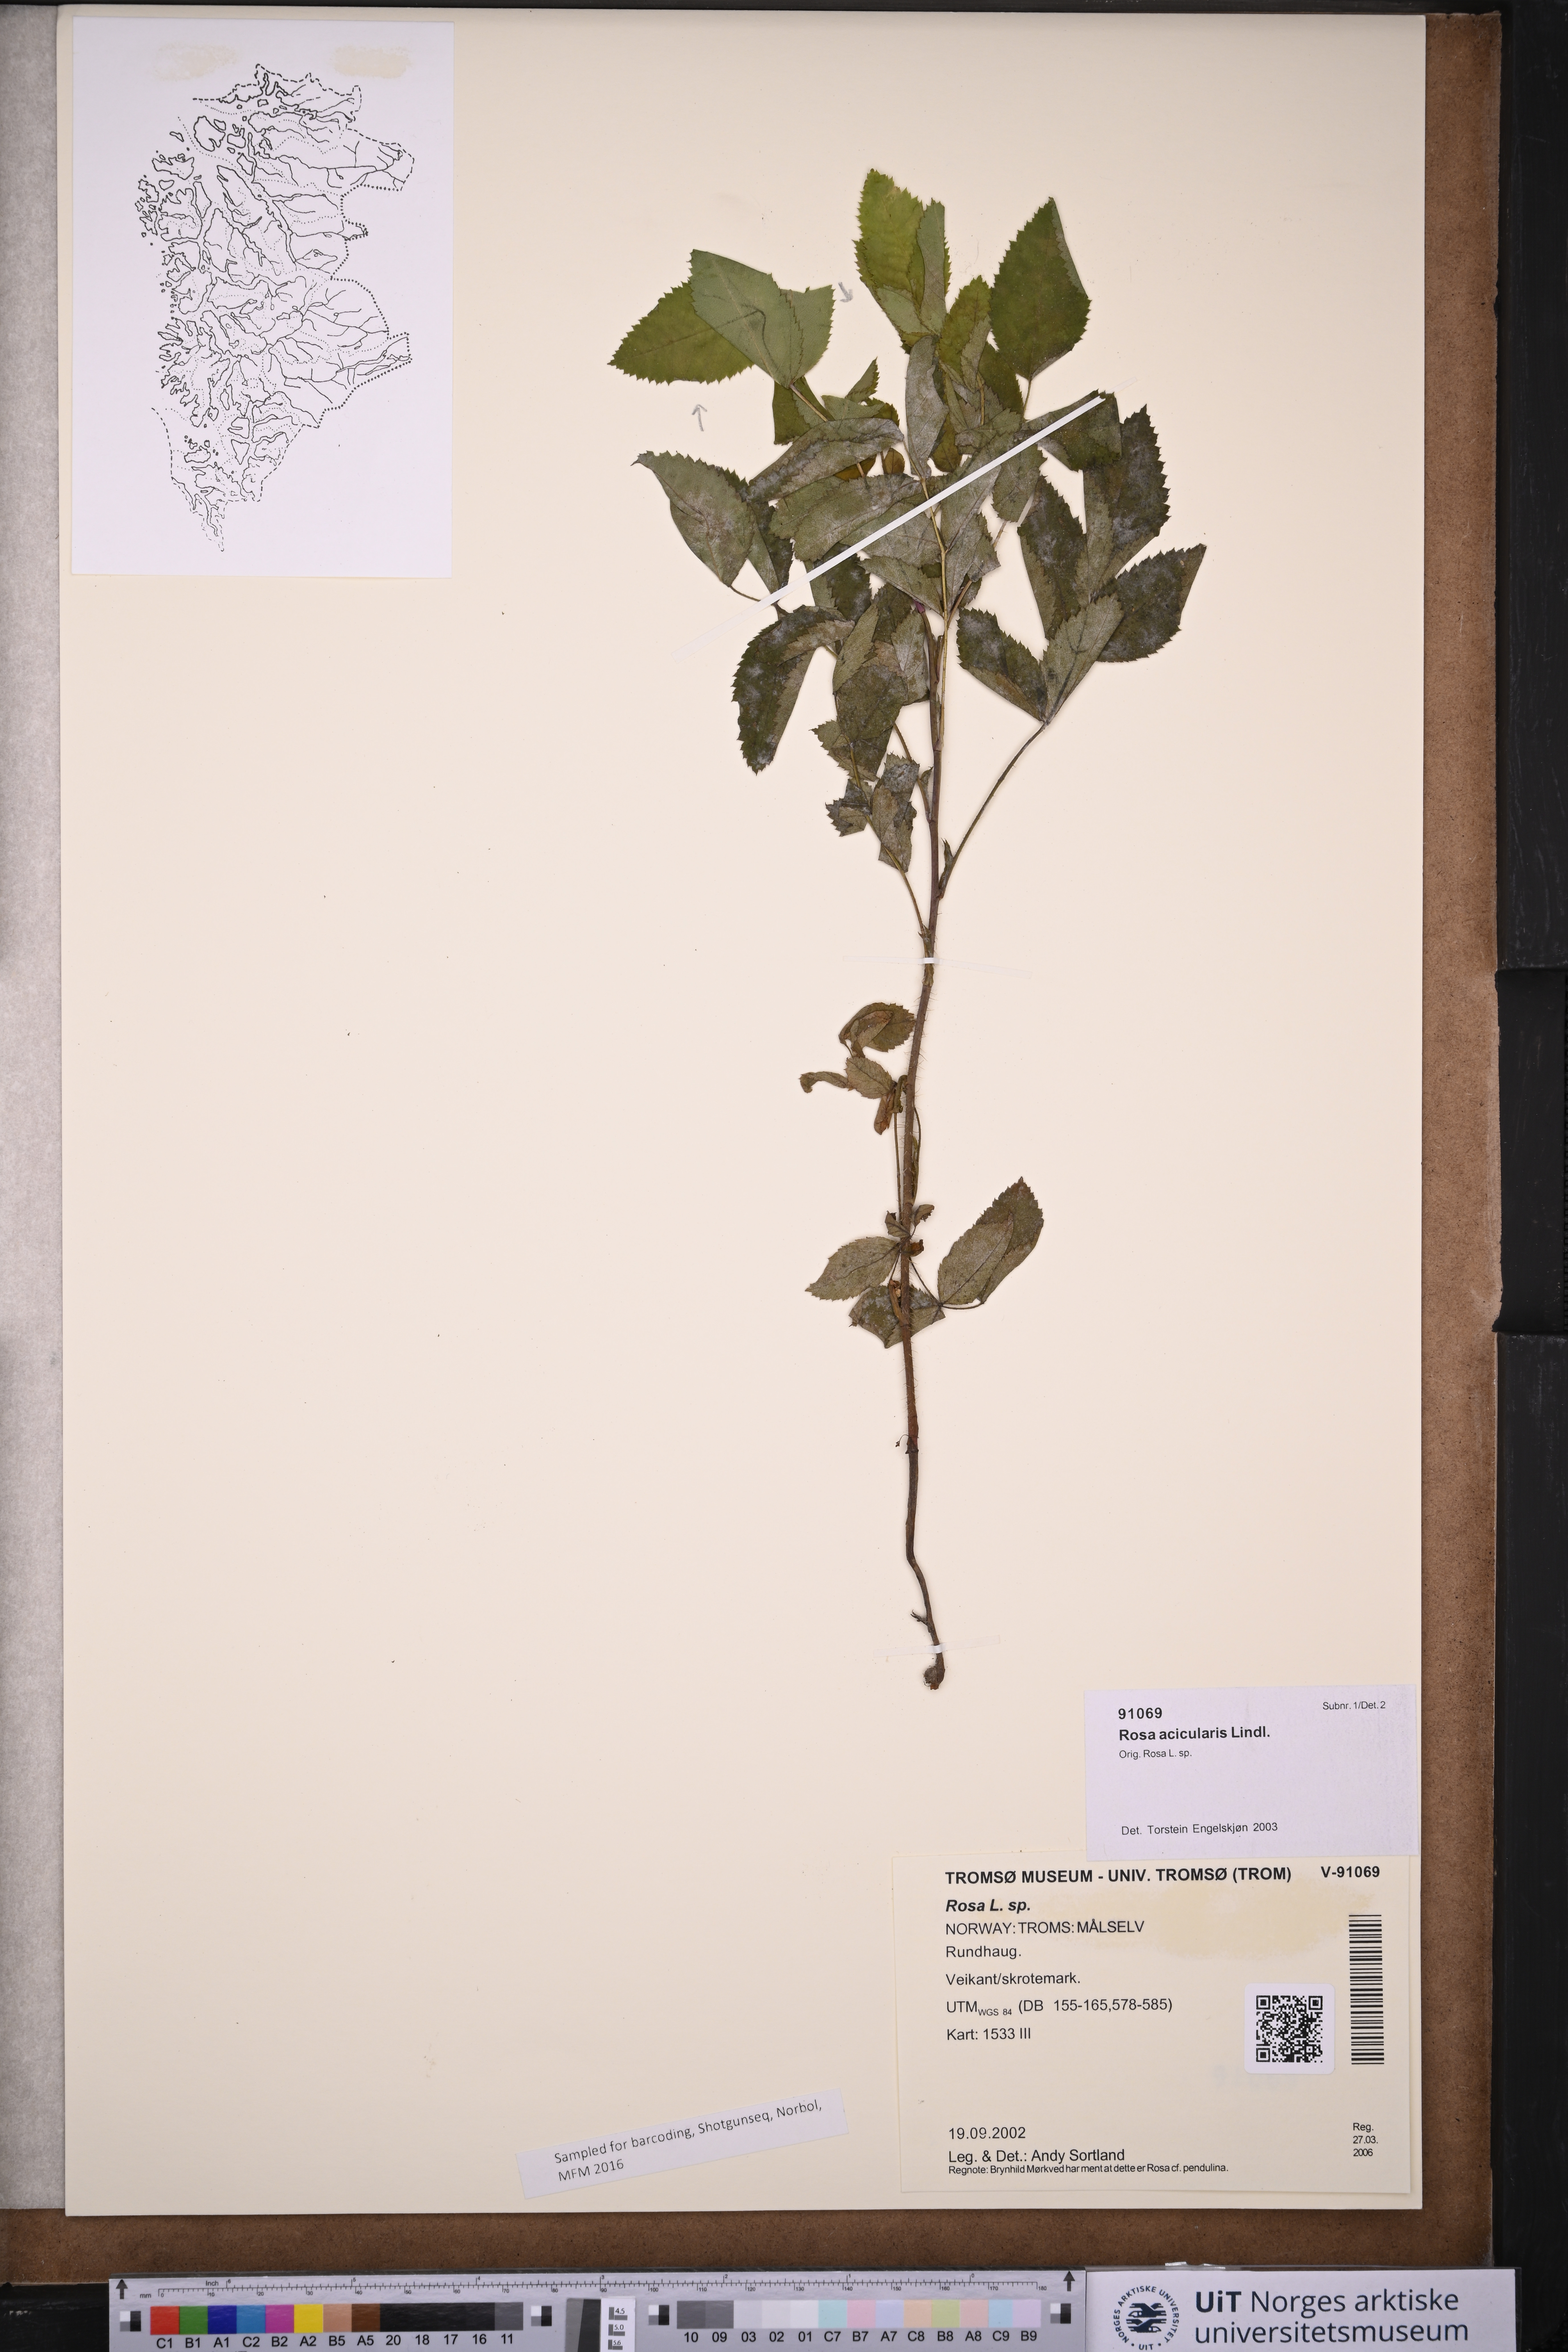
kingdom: Plantae
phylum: Tracheophyta
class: Magnoliopsida
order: Rosales
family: Rosaceae
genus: Rosa
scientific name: Rosa acicularis
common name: Prickly rose
